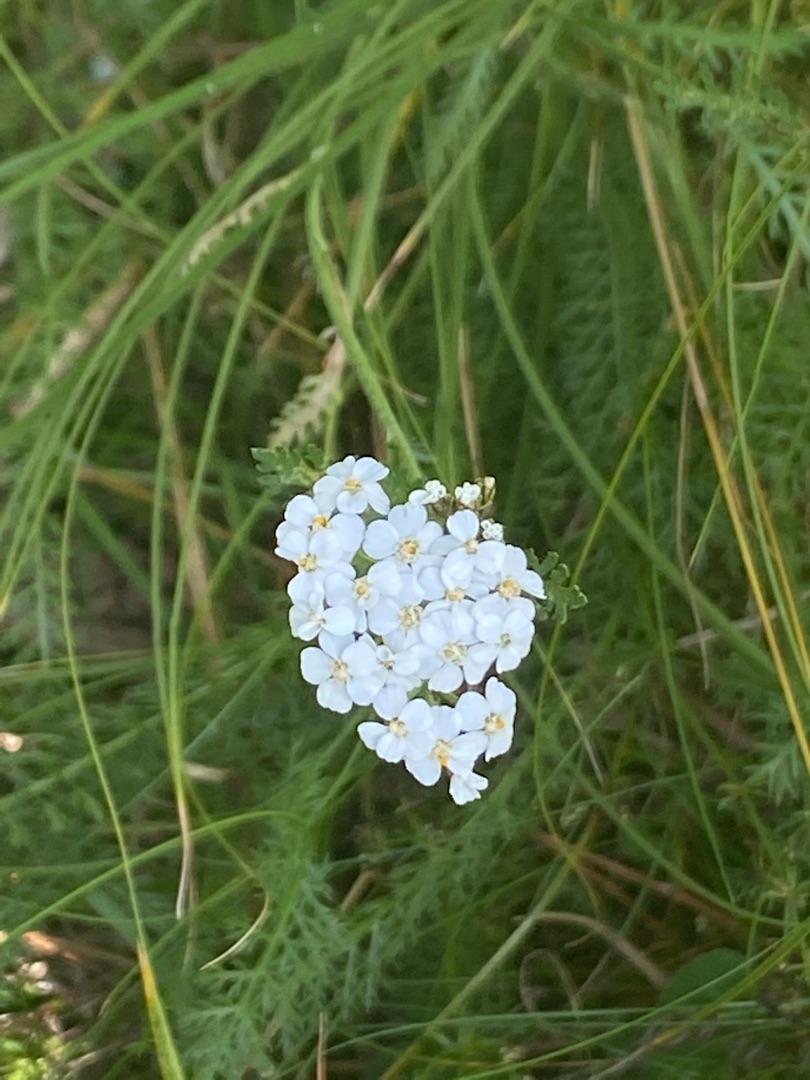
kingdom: Plantae
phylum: Tracheophyta
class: Magnoliopsida
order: Asterales
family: Asteraceae
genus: Achillea
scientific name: Achillea millefolium
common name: Almindelig røllike
